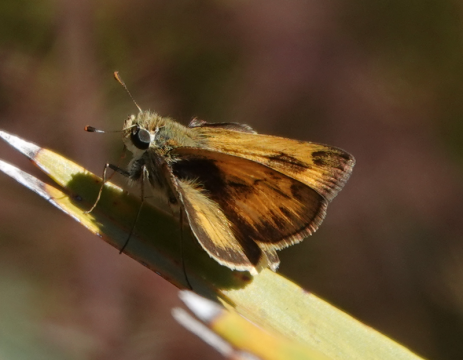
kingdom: Animalia
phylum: Arthropoda
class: Insecta
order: Lepidoptera
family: Hesperiidae
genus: Polites
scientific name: Polites vibex
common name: Whirlabout
